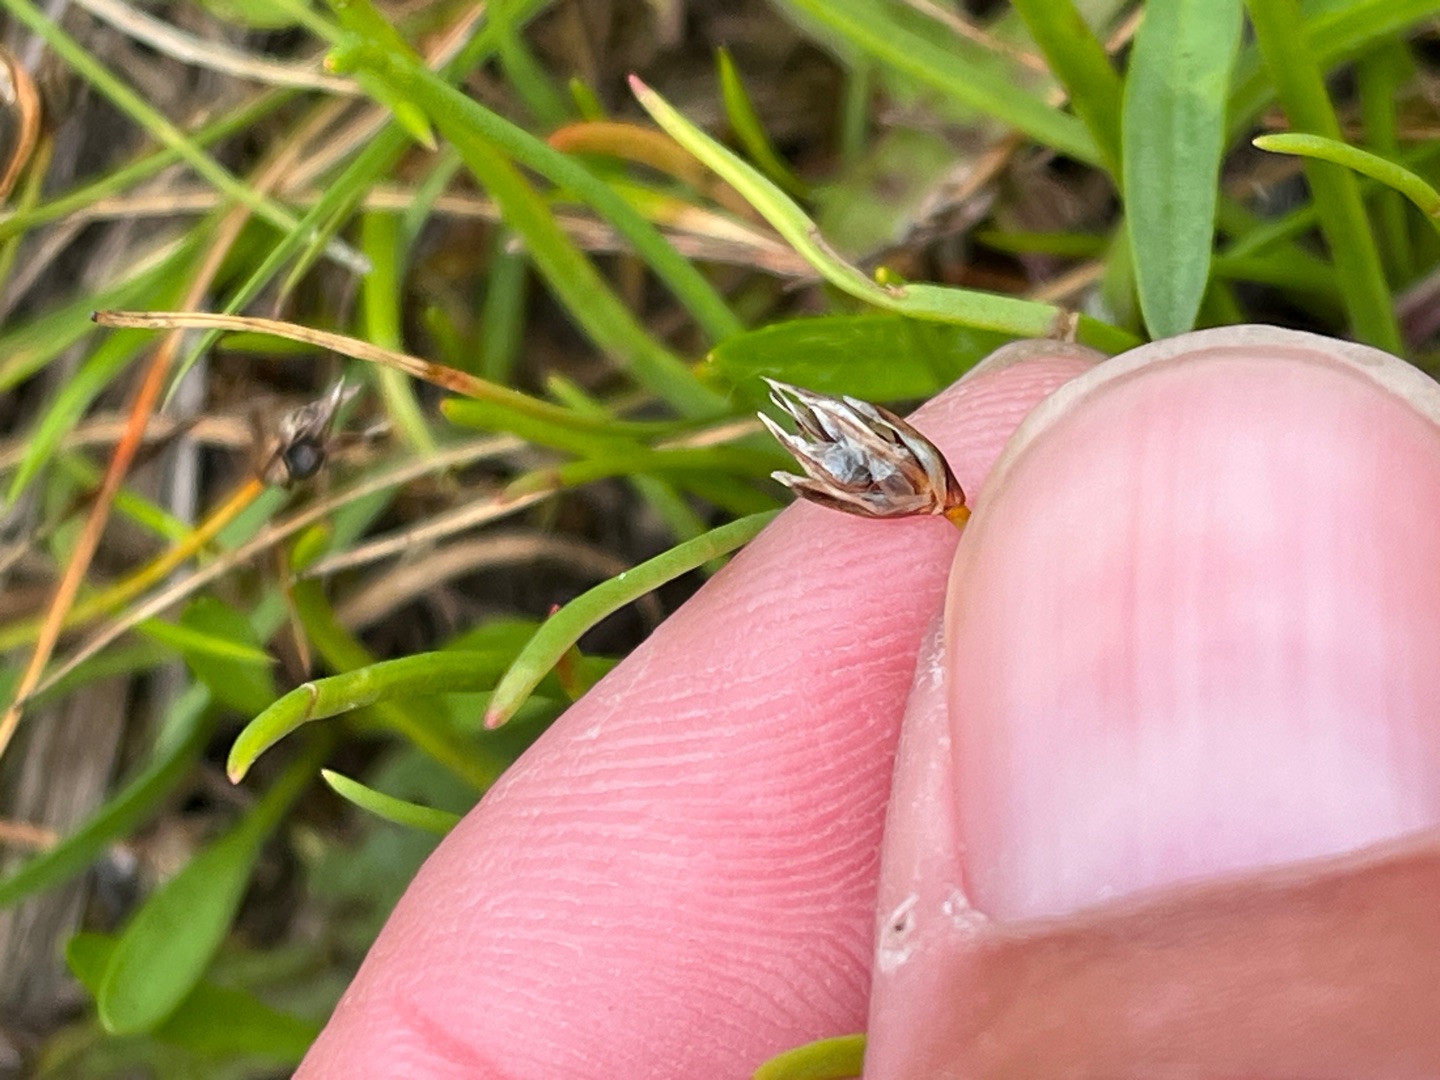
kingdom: Plantae
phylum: Tracheophyta
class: Liliopsida
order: Poales
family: Cyperaceae
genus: Eleocharis
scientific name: Eleocharis quinqueflora
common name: Fåblomstret kogleaks
